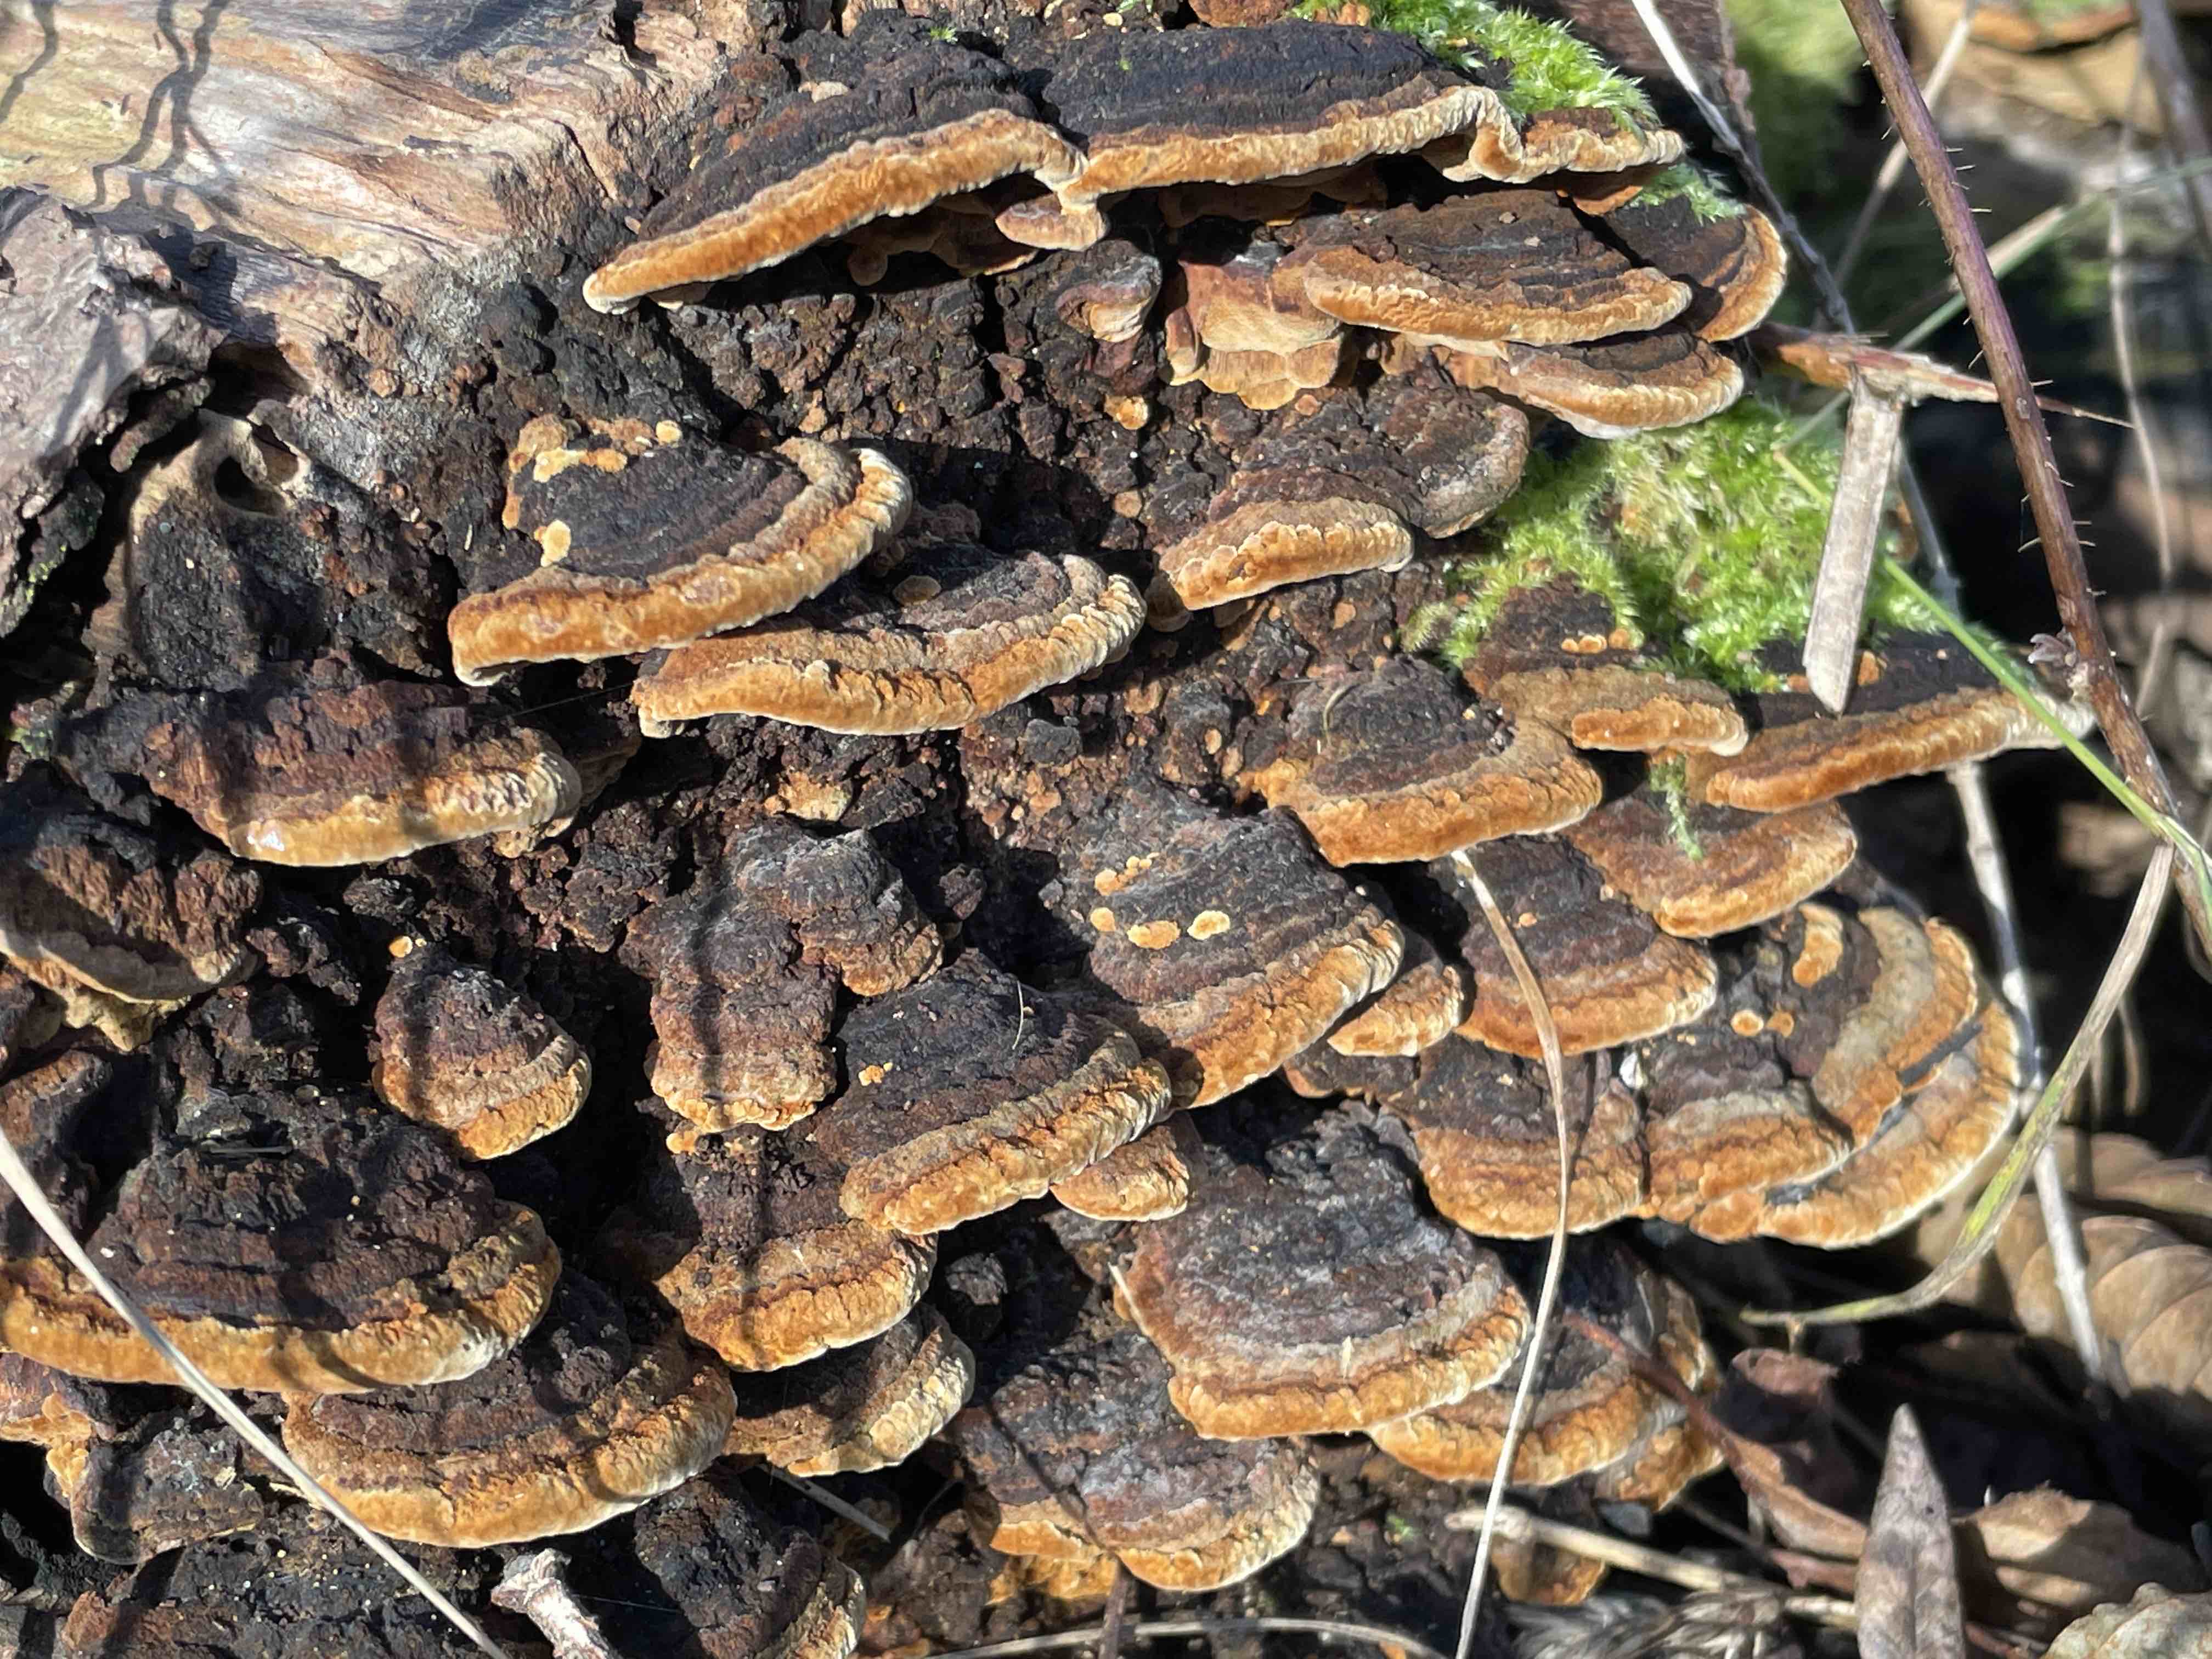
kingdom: Fungi
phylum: Basidiomycota
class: Agaricomycetes
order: Hymenochaetales
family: Hymenochaetaceae
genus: Phellinopsis
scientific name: Phellinopsis conchata
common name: pile-ildporesvamp
